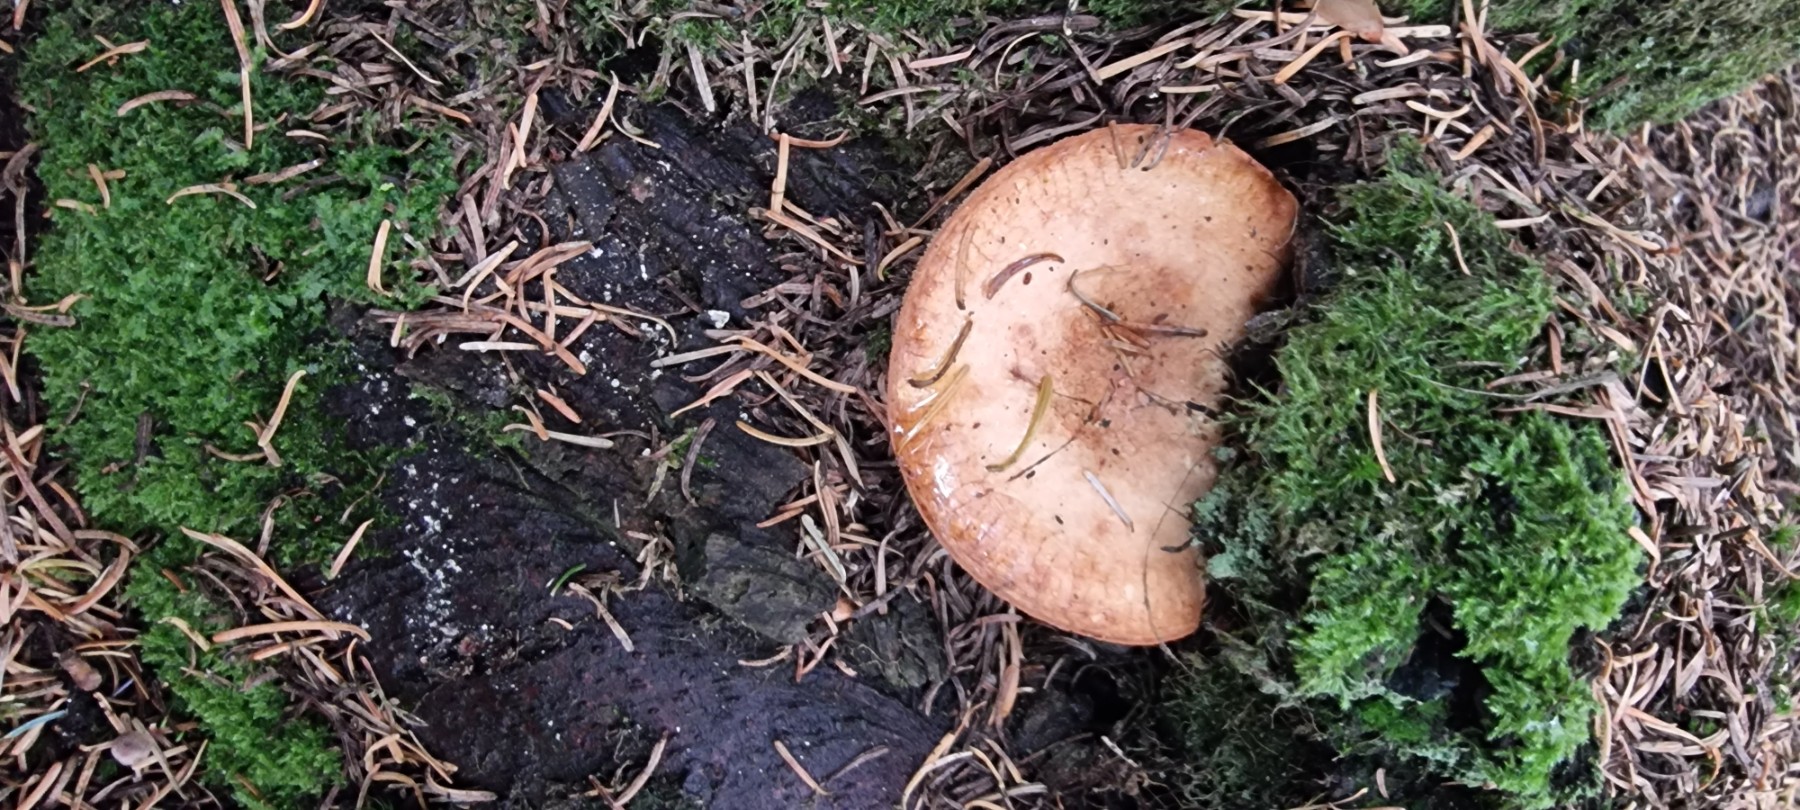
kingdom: Fungi
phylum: Basidiomycota
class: Agaricomycetes
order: Boletales
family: Paxillaceae
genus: Paxillus
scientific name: Paxillus involutus
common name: almindelig netbladhat
